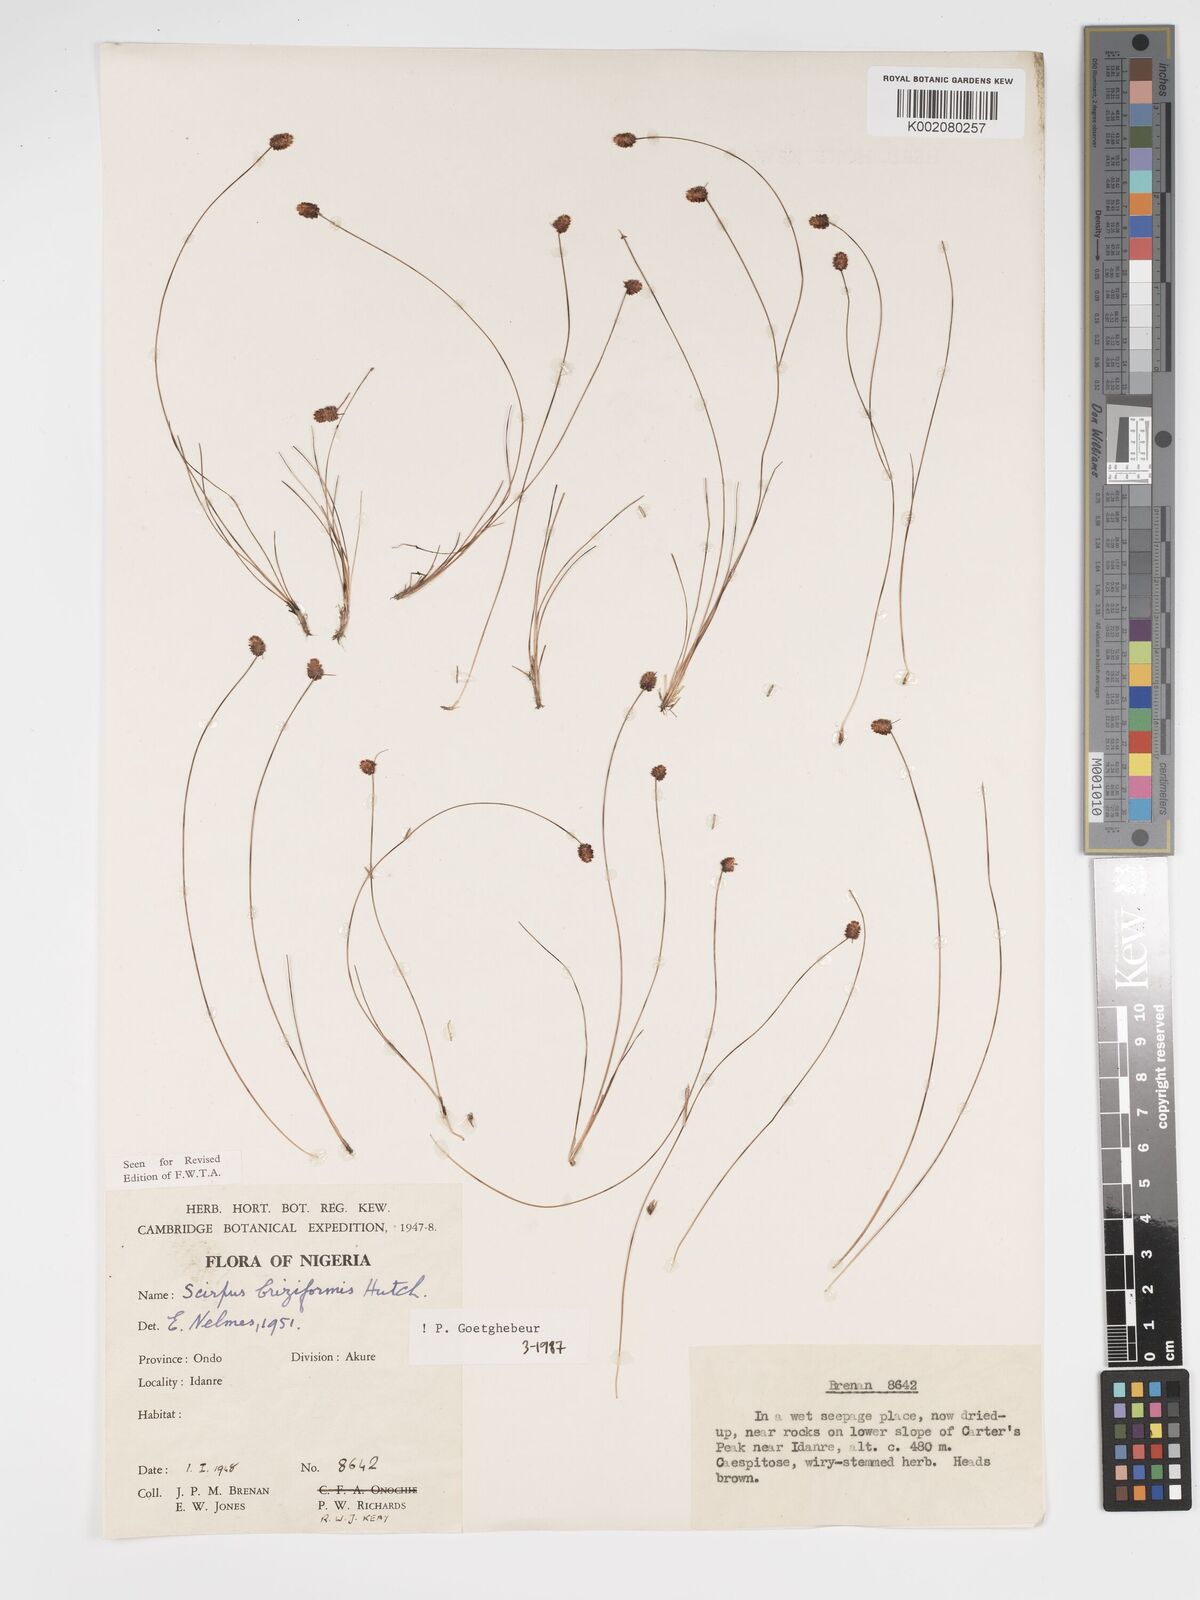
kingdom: Plantae
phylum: Tracheophyta
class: Liliopsida
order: Poales
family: Cyperaceae
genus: Bulbostylis
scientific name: Bulbostylis briziformis
